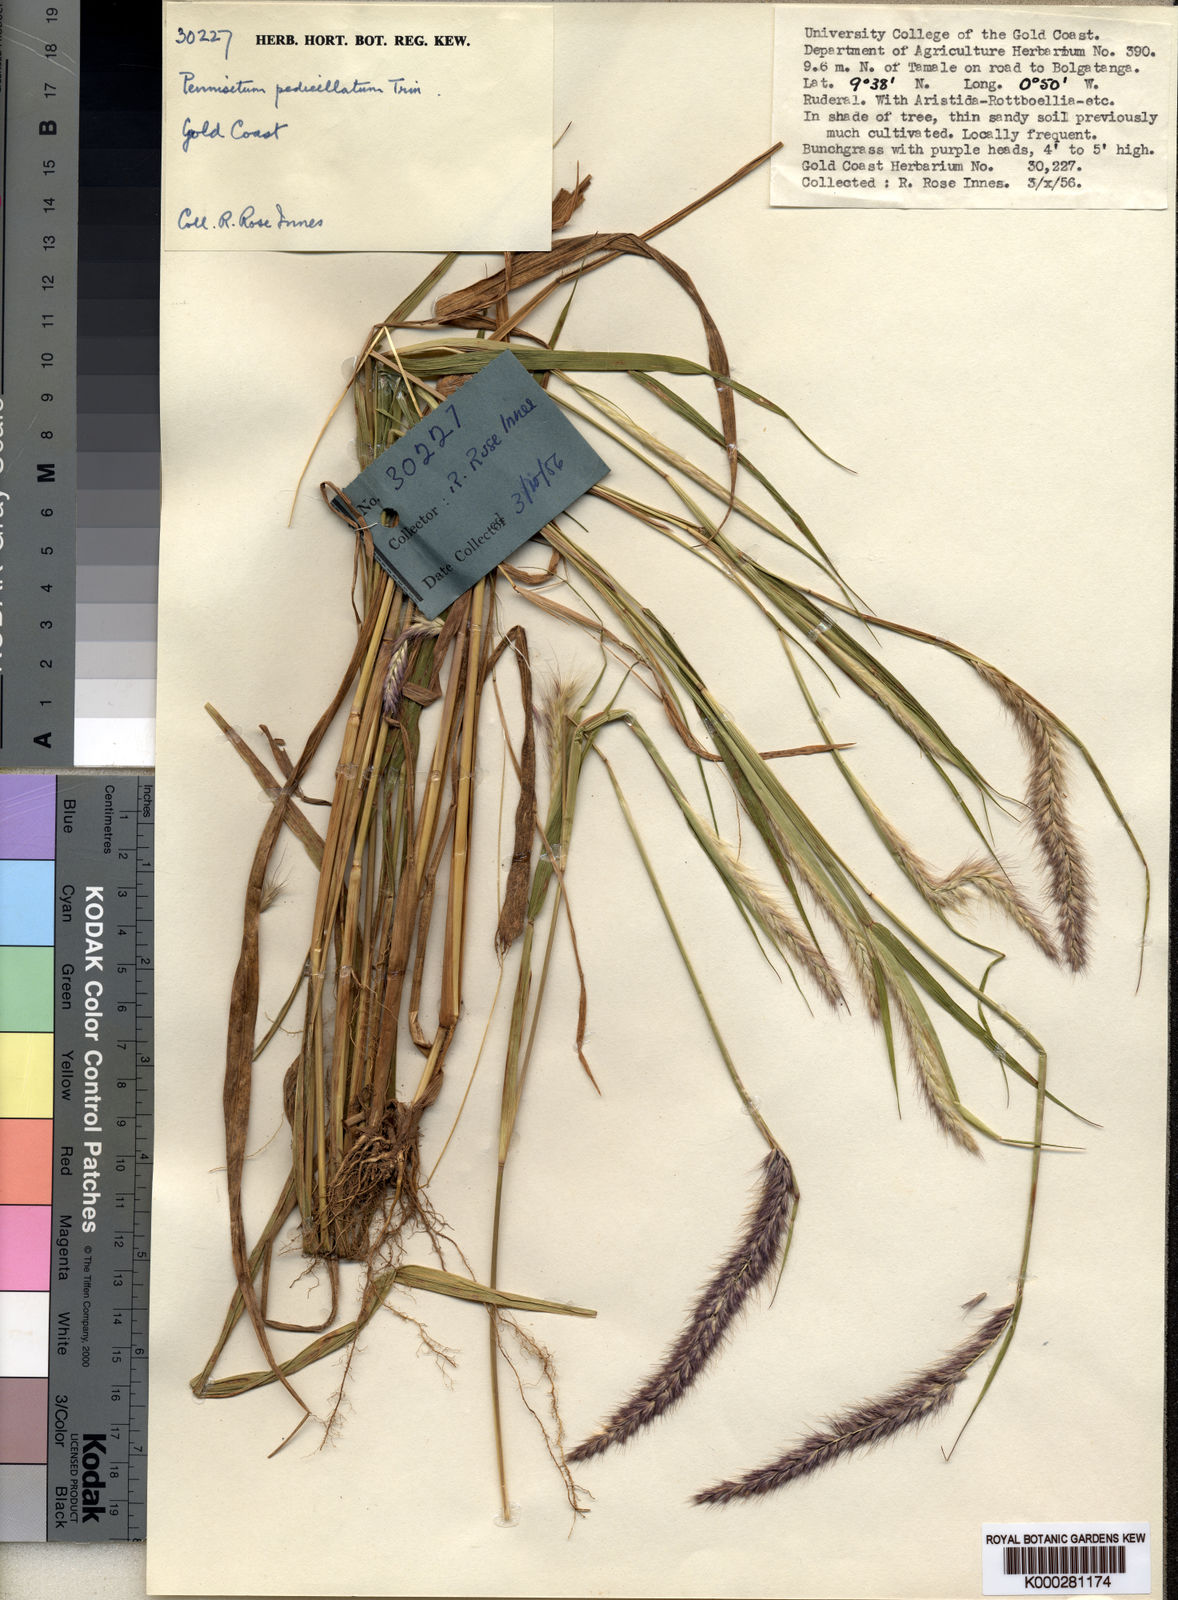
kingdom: Plantae
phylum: Tracheophyta
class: Liliopsida
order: Poales
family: Poaceae
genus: Cenchrus
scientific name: Cenchrus pedicellatus
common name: Hairy fountain grass
